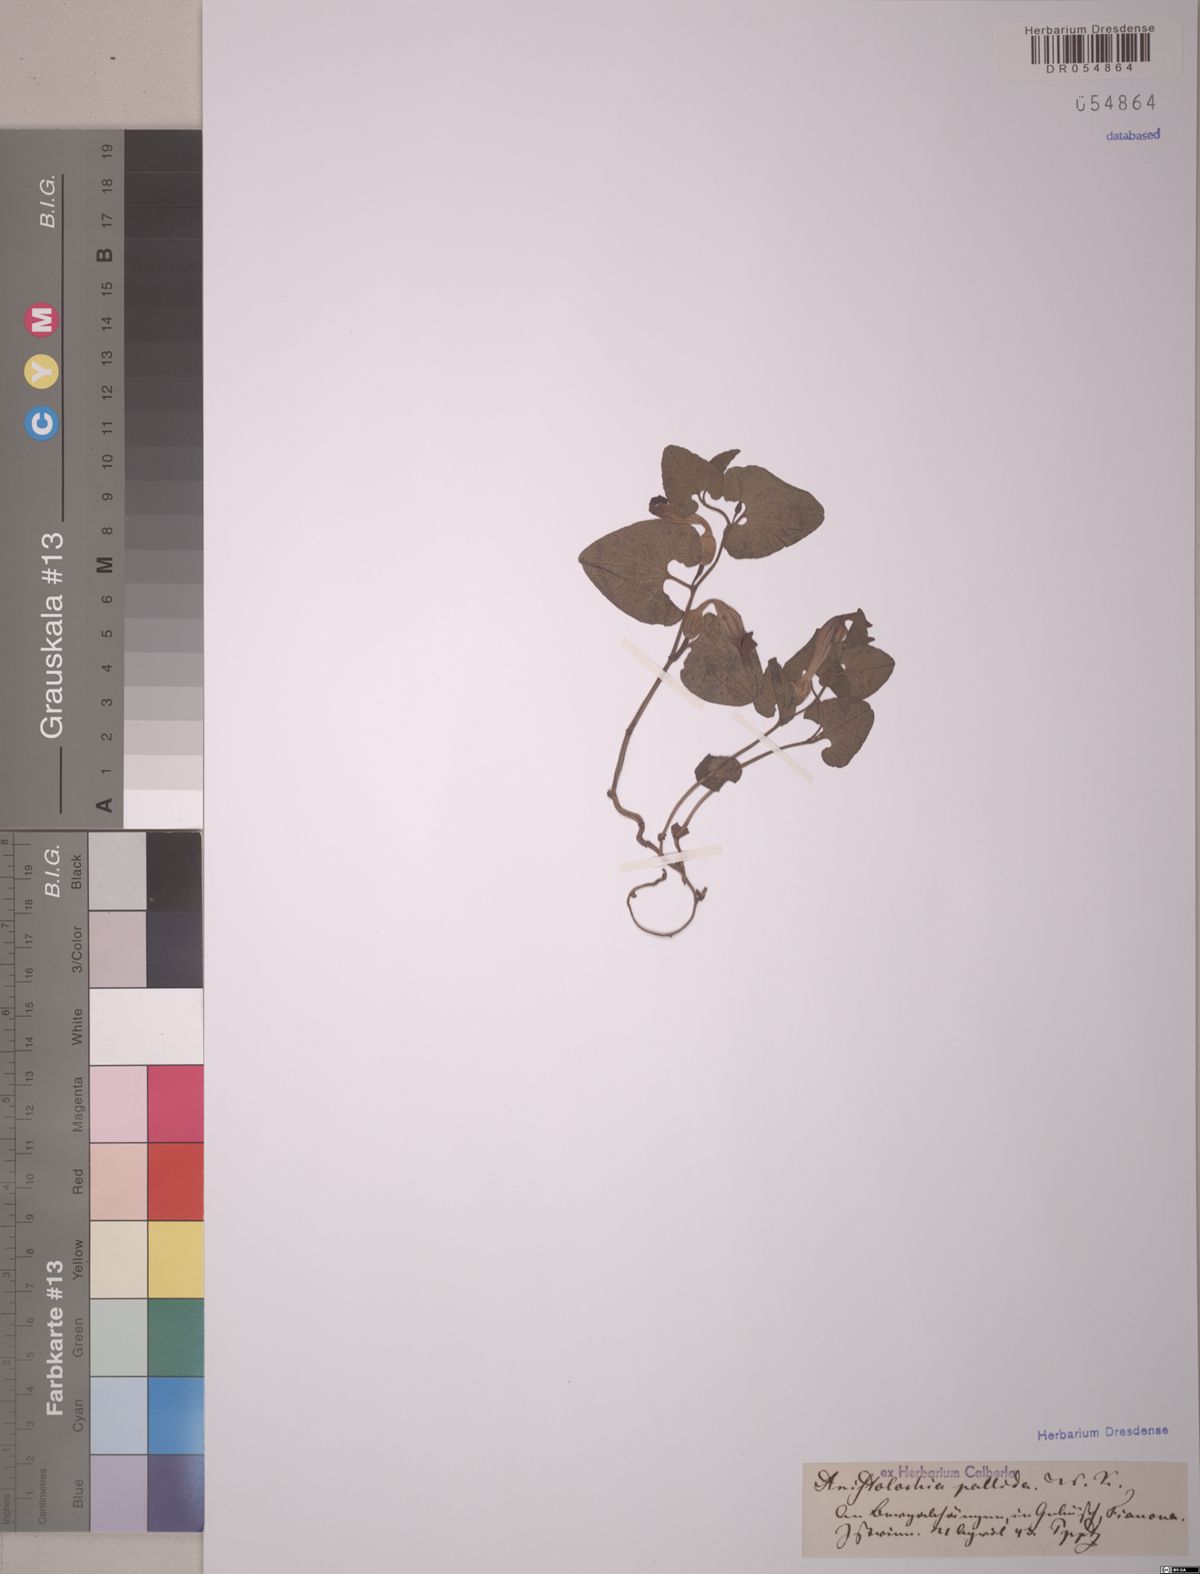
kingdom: Plantae
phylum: Tracheophyta
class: Magnoliopsida
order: Piperales
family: Aristolochiaceae
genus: Aristolochia
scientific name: Aristolochia pallida
